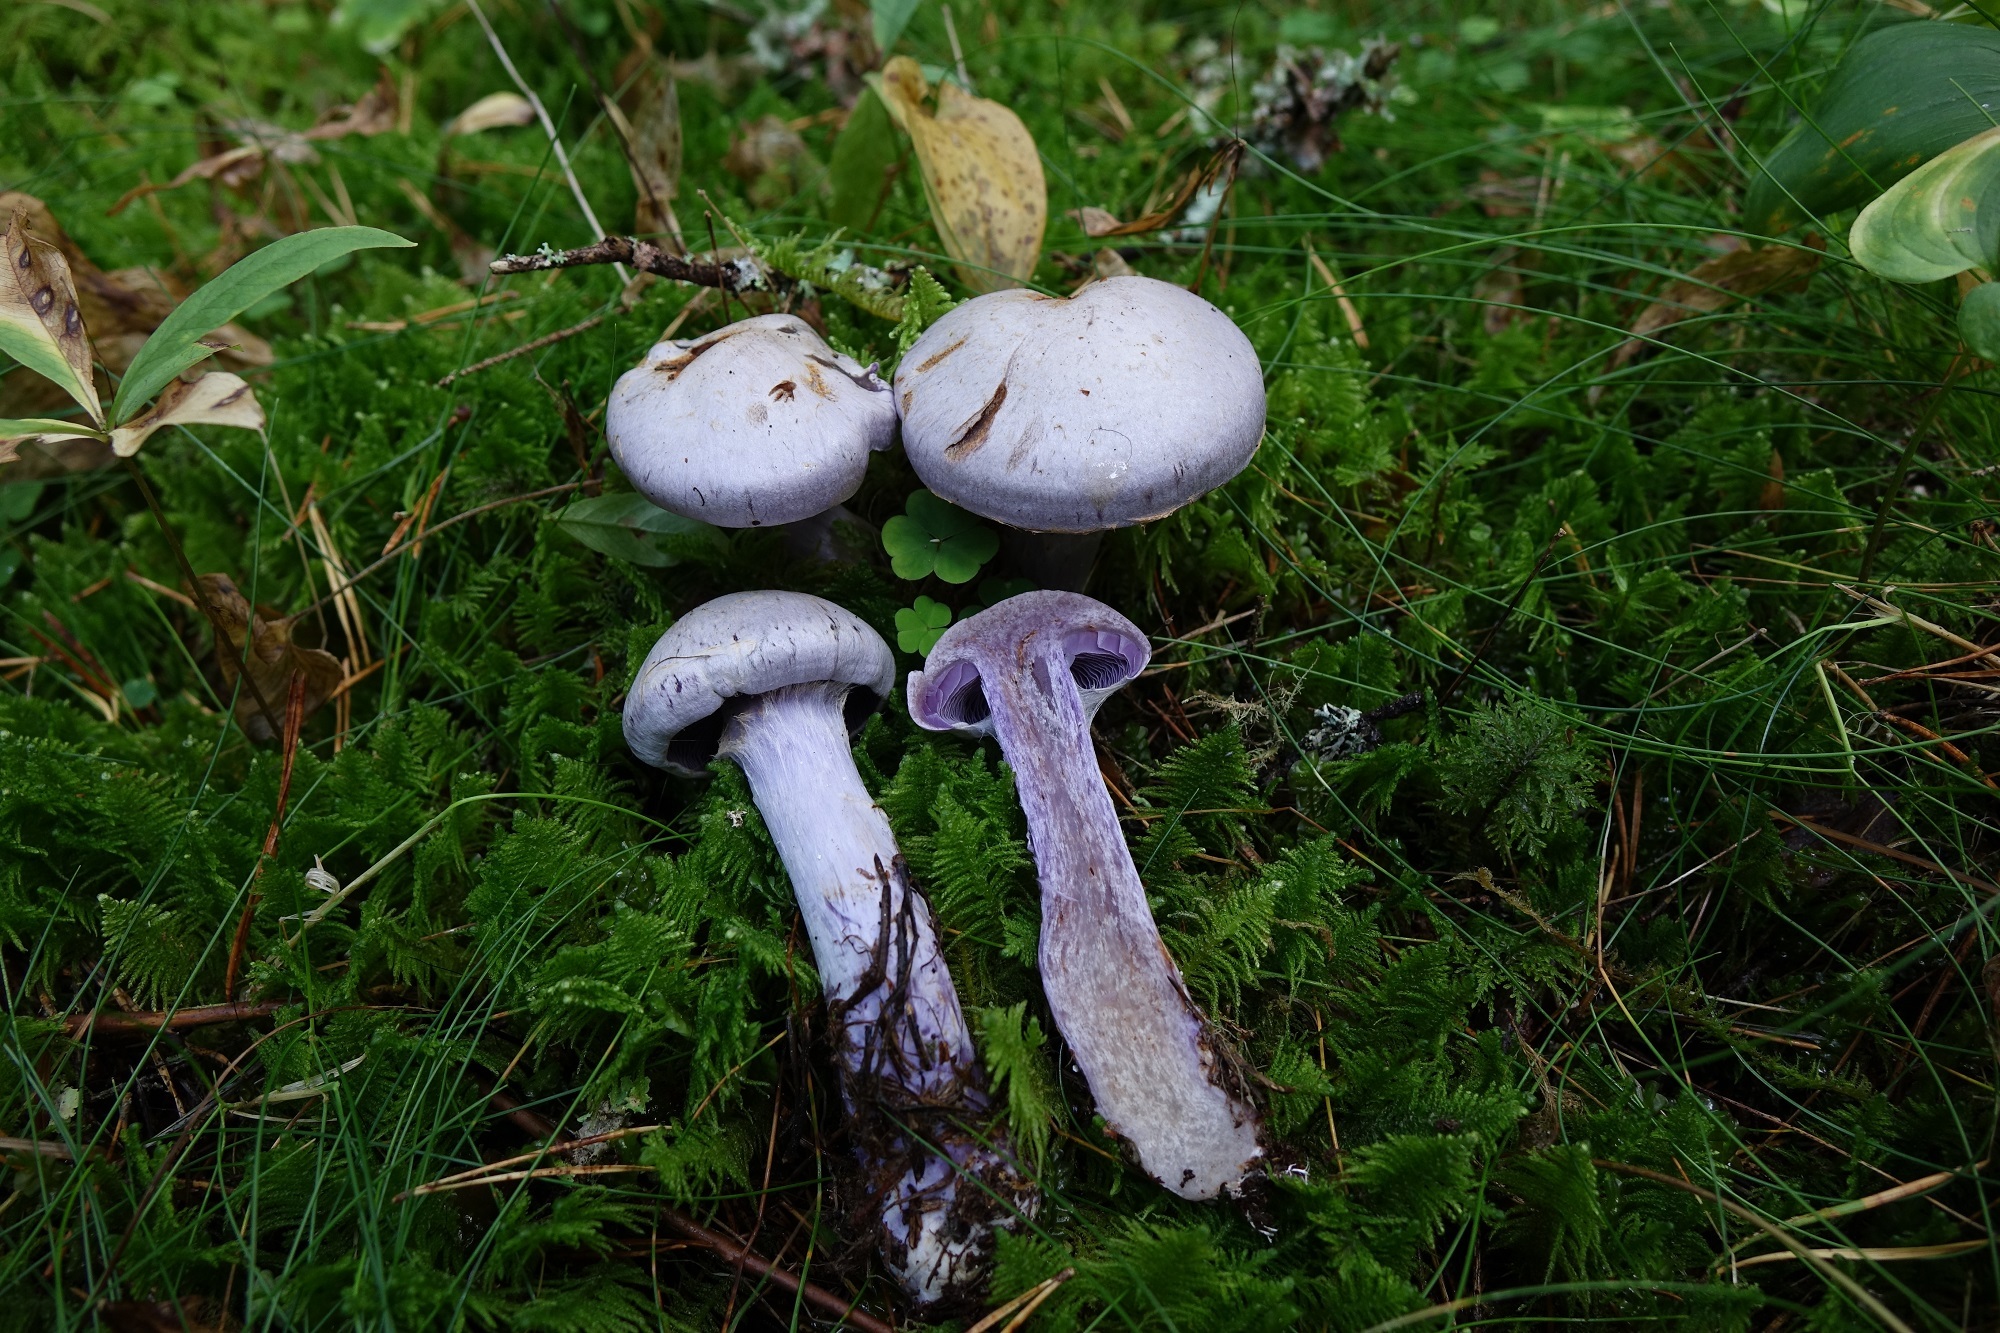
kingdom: Fungi
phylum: Basidiomycota
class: Agaricomycetes
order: Agaricales
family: Cortinariaceae
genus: Cortinarius
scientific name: Cortinarius camphoratus
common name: Goatcheese webcap
